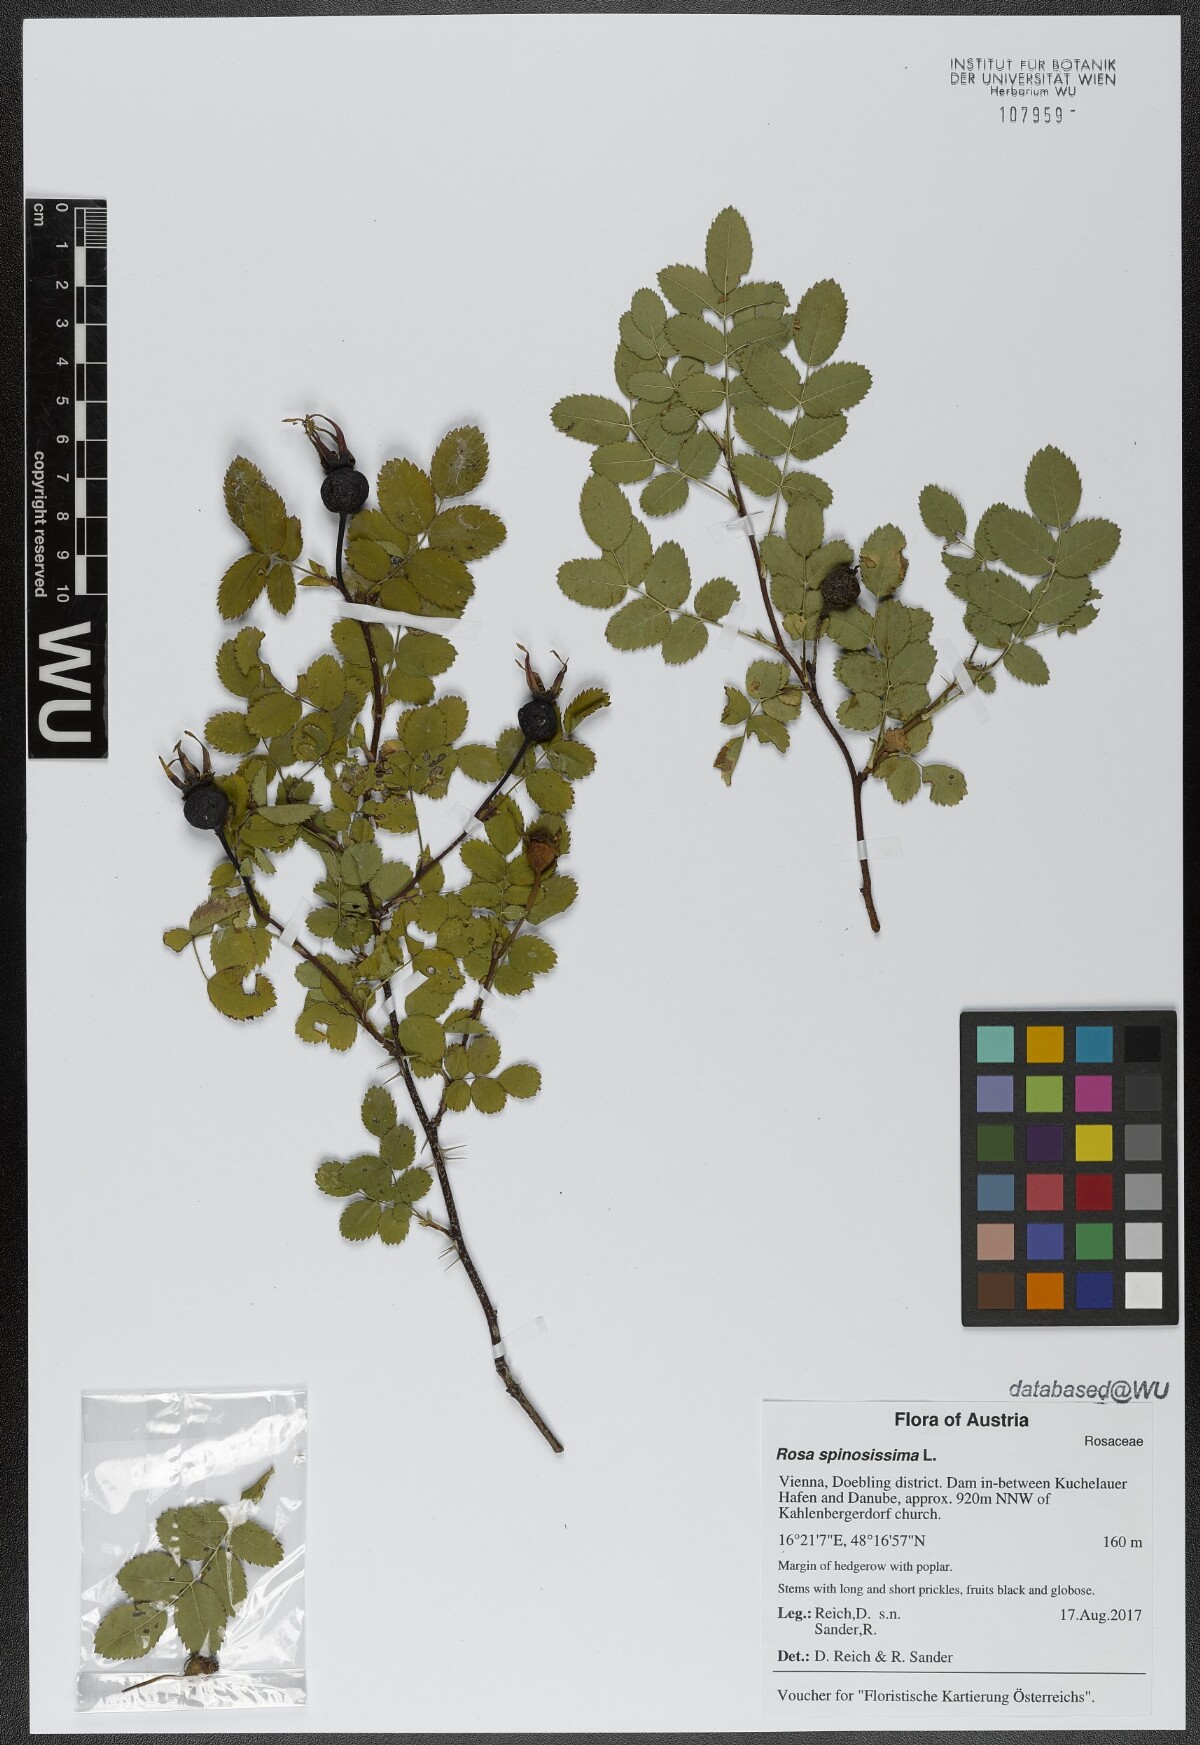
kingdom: Plantae
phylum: Tracheophyta
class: Magnoliopsida
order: Rosales
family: Rosaceae
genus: Rosa
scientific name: Rosa spinosissima
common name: Burnet rose
